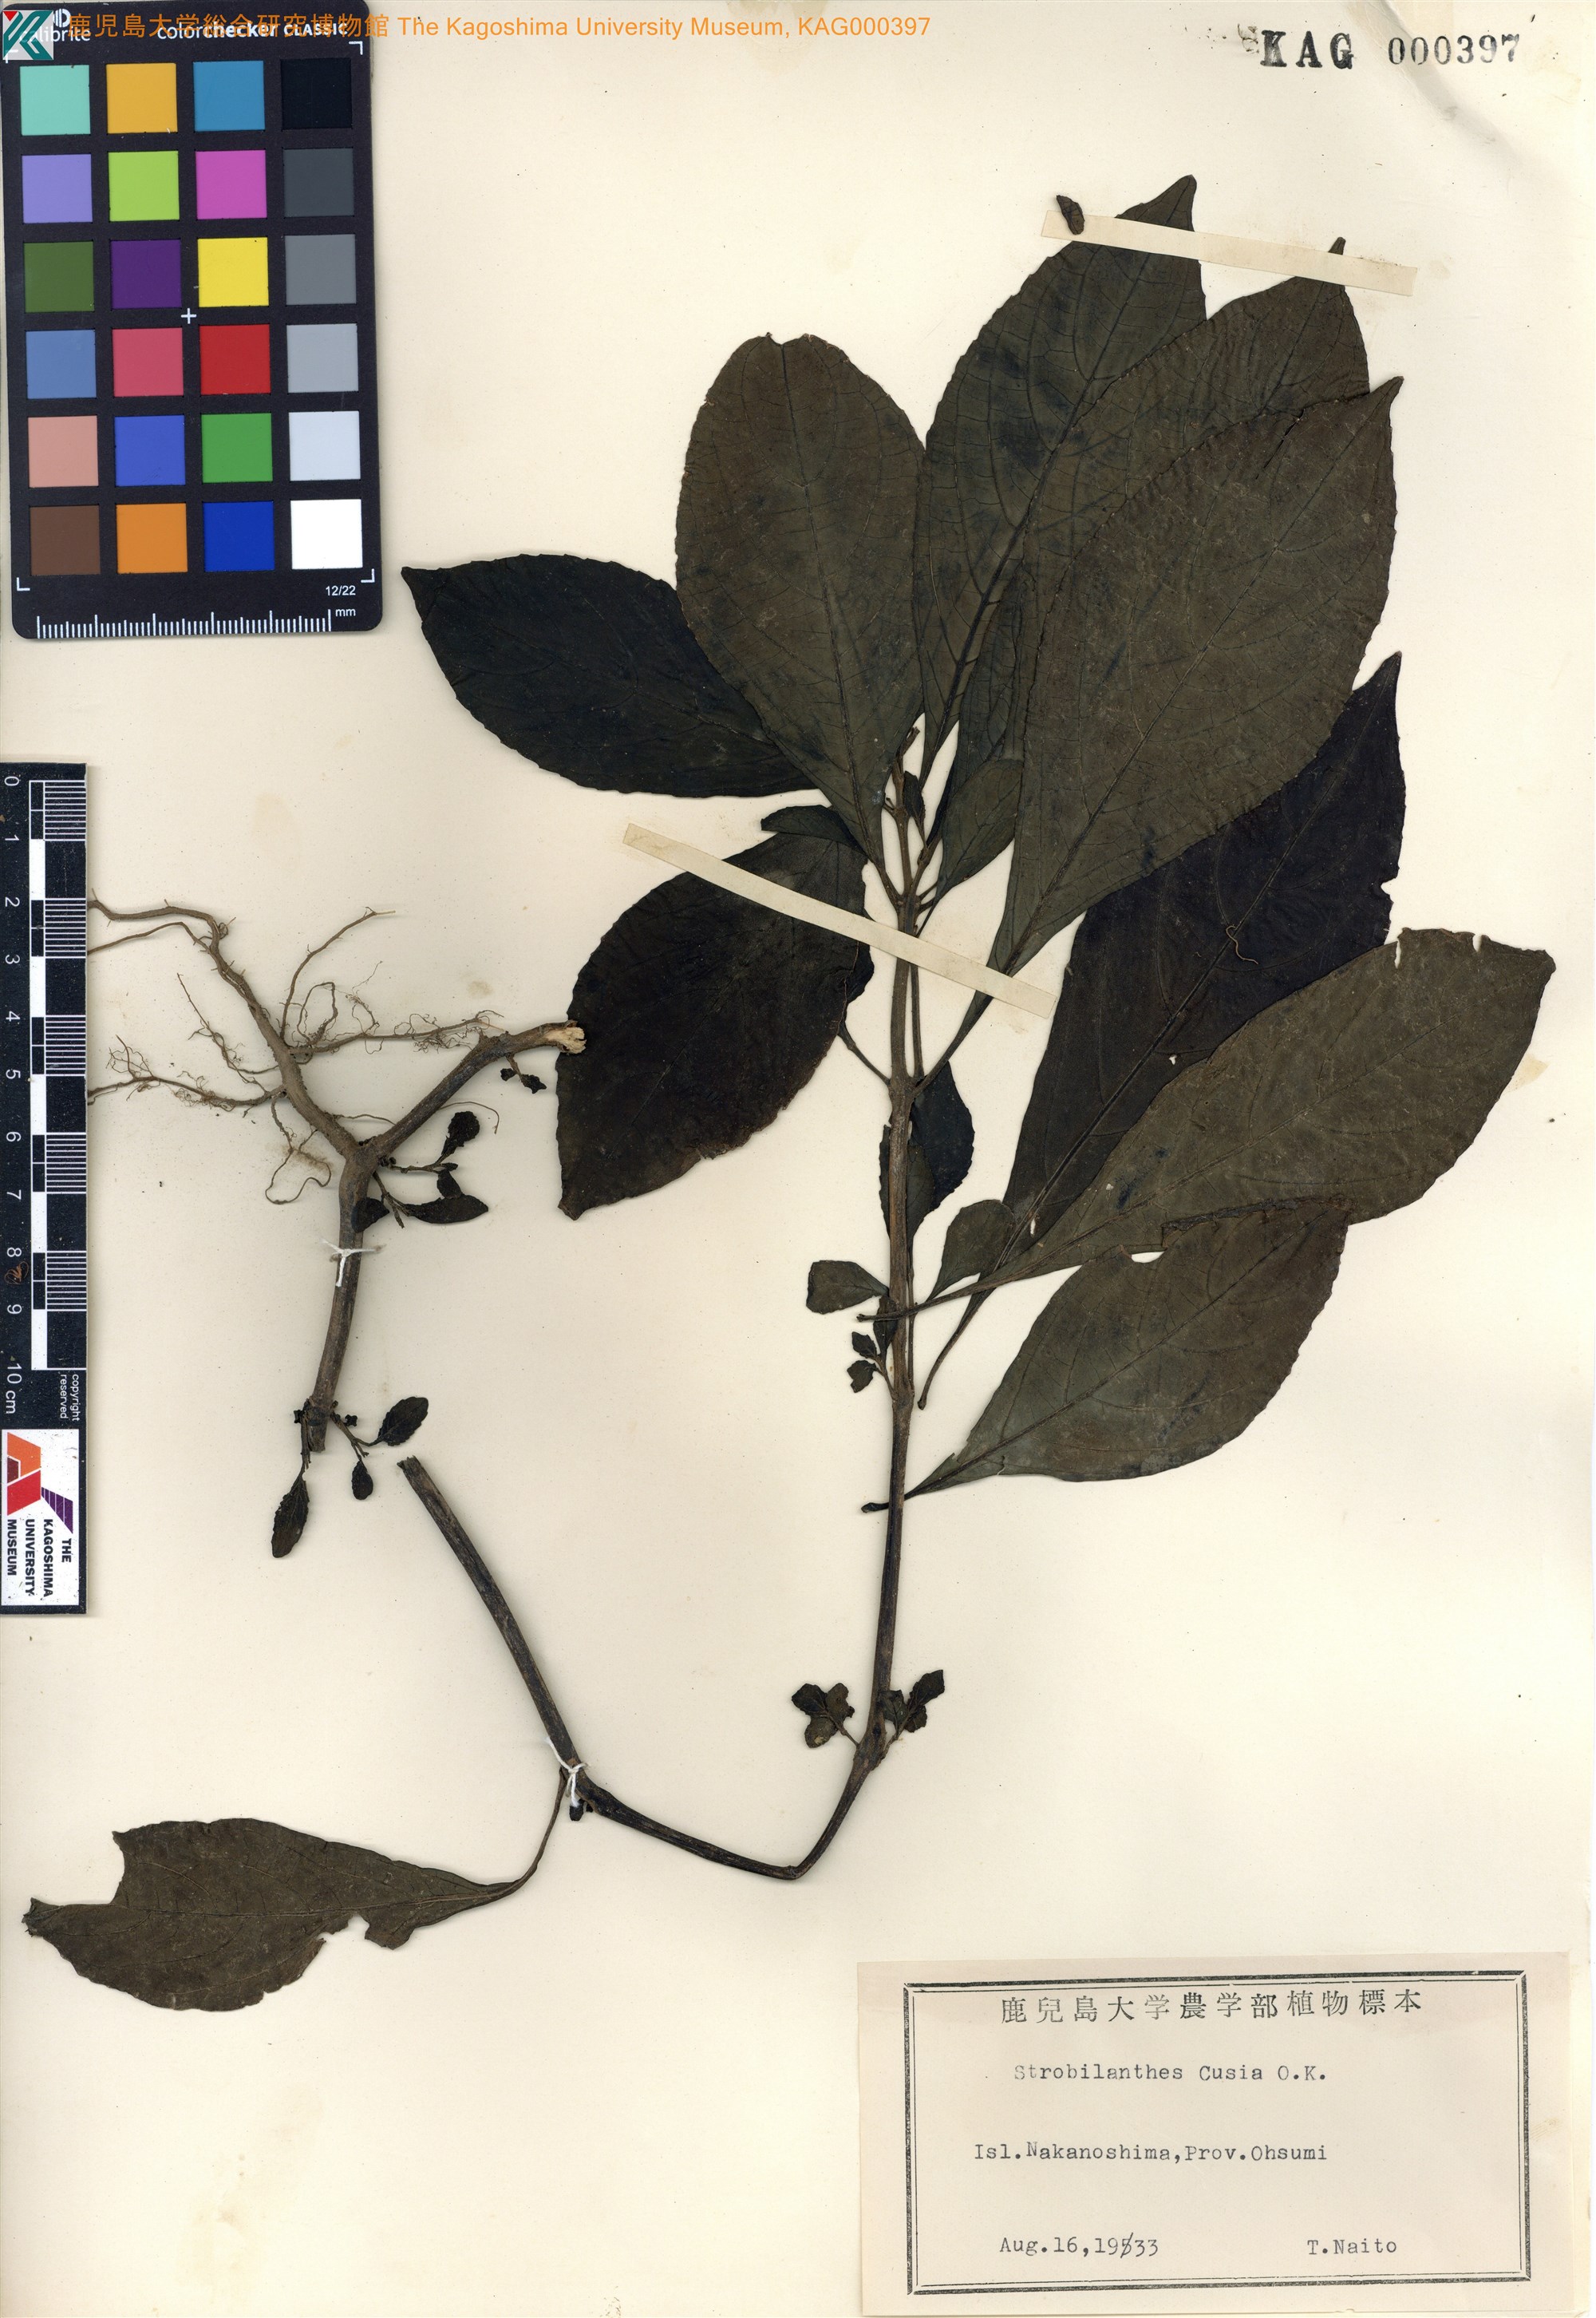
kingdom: Plantae
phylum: Tracheophyta
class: Magnoliopsida
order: Lamiales
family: Acanthaceae
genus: Strobilanthes
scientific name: Strobilanthes cusia
